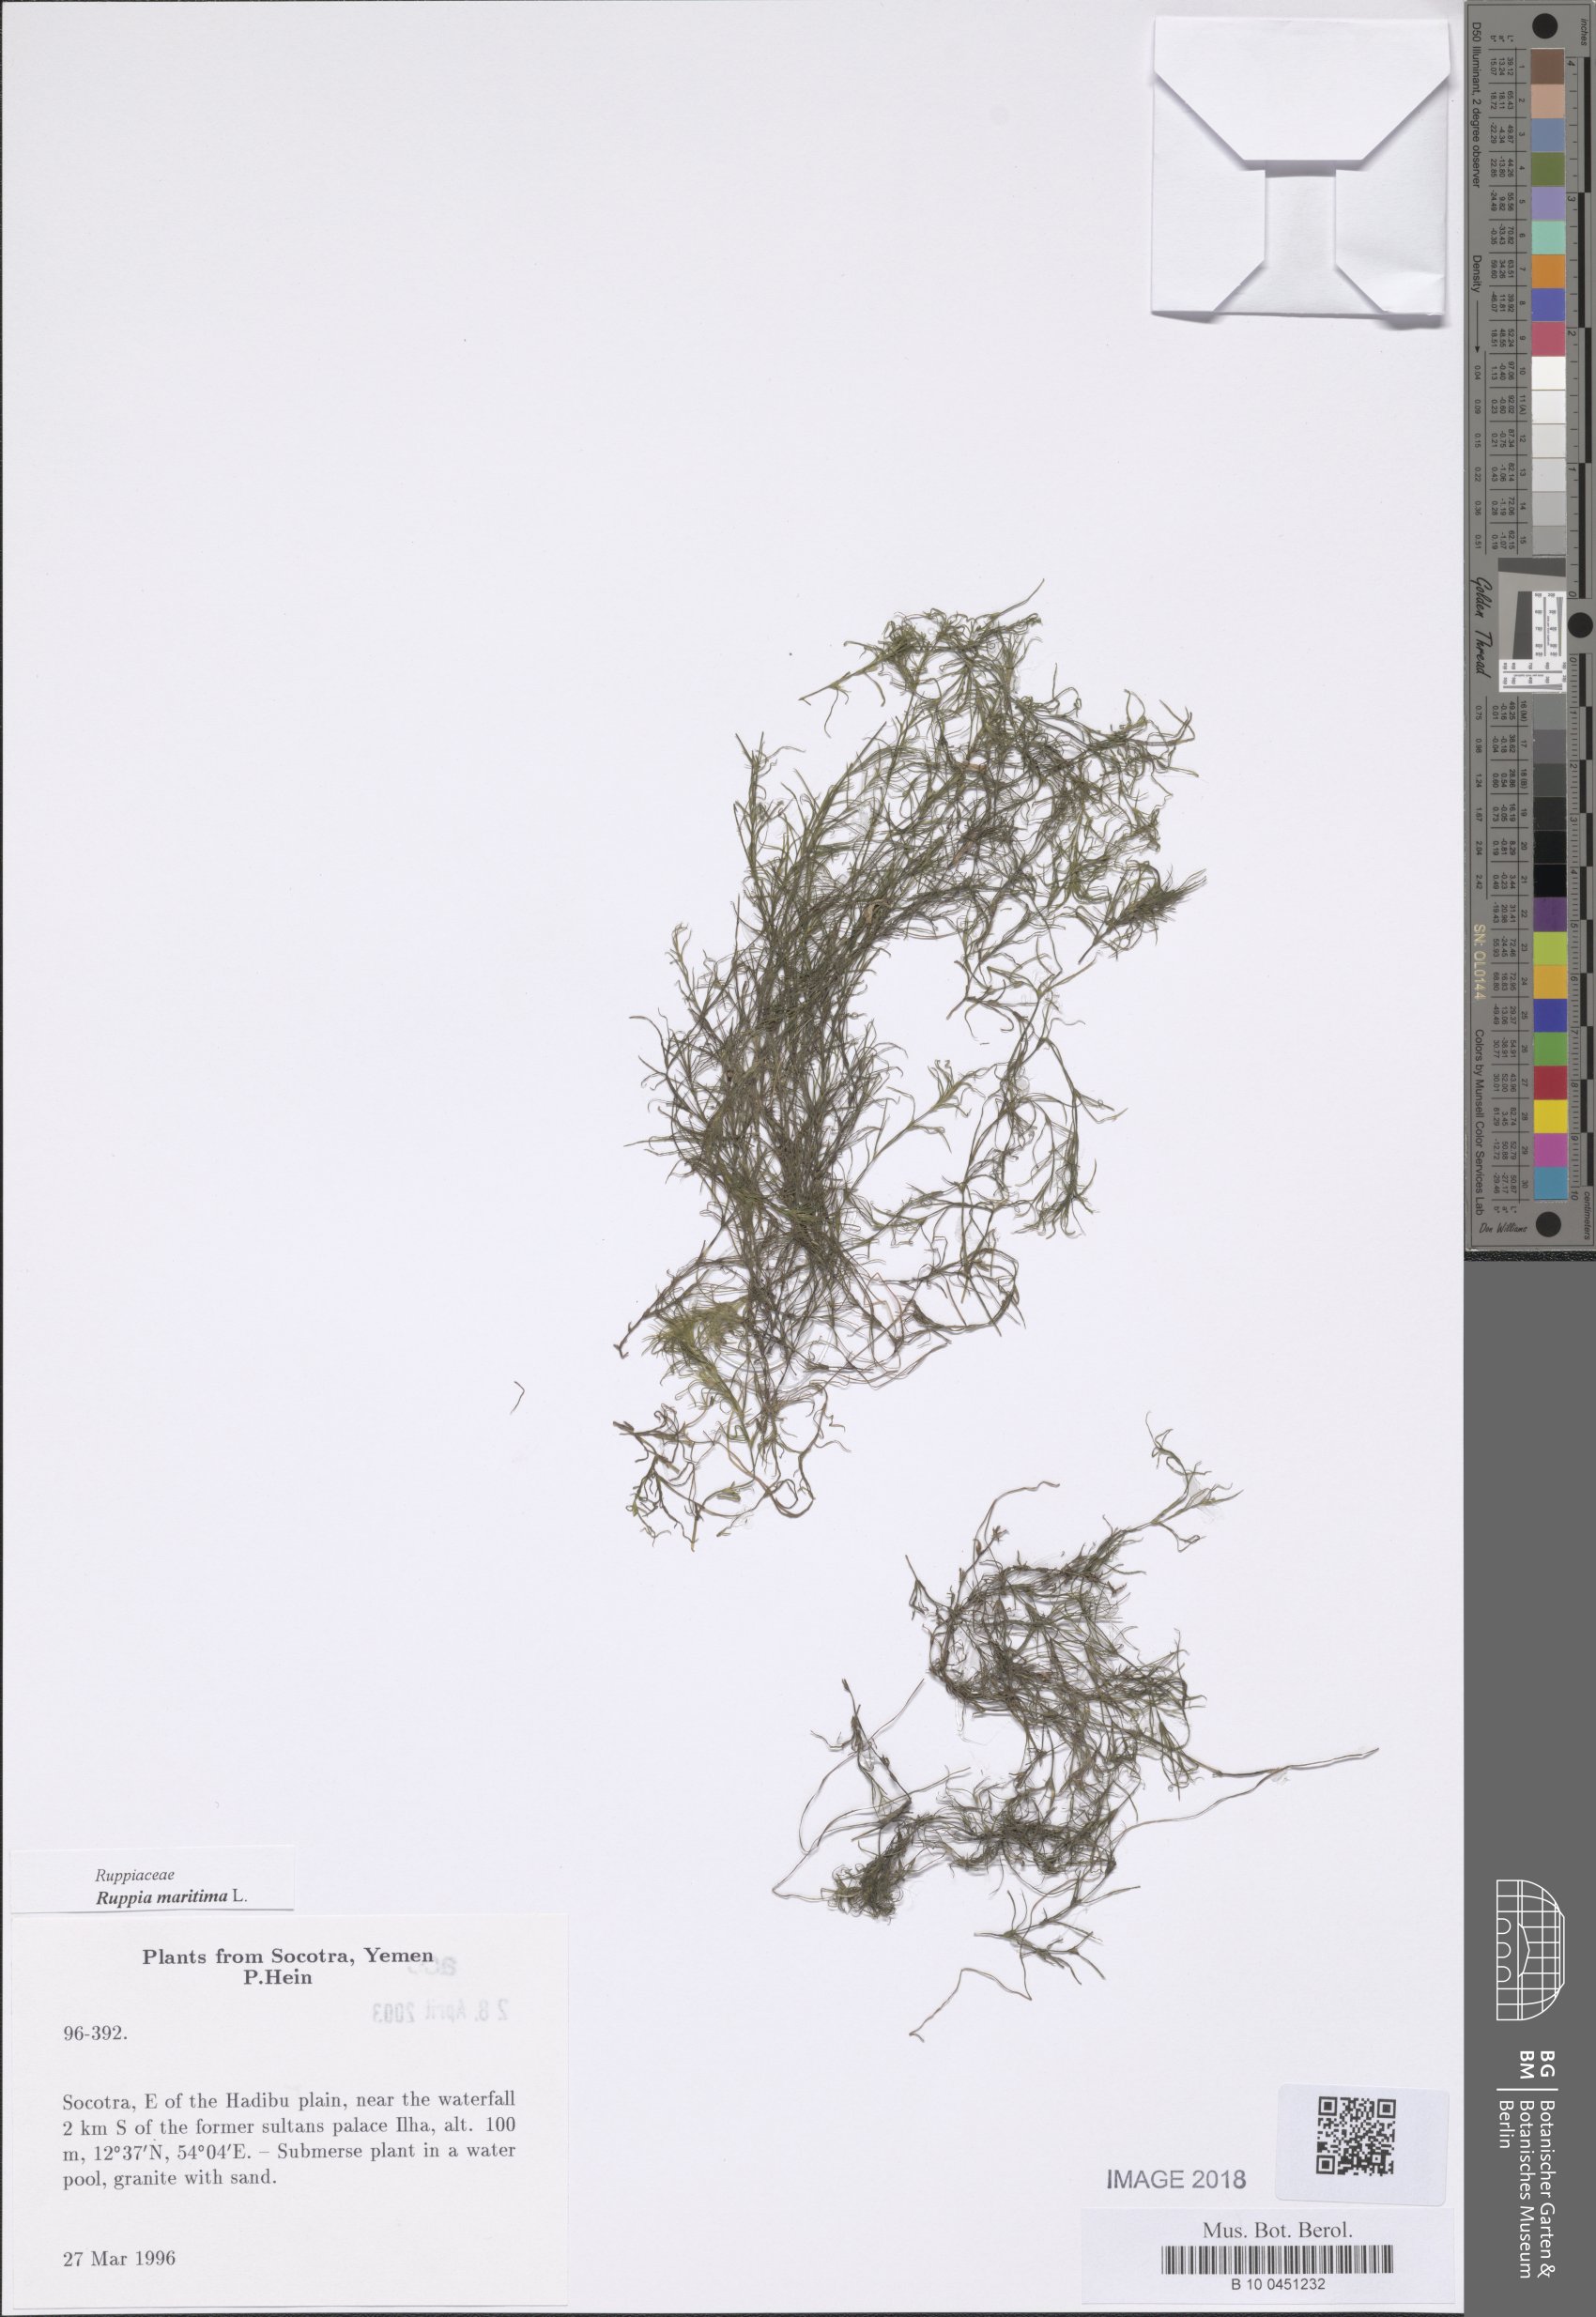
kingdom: Plantae
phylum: Tracheophyta
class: Liliopsida
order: Alismatales
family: Ruppiaceae
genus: Ruppia
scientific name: Ruppia maritima
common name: Beaked tasselweed
